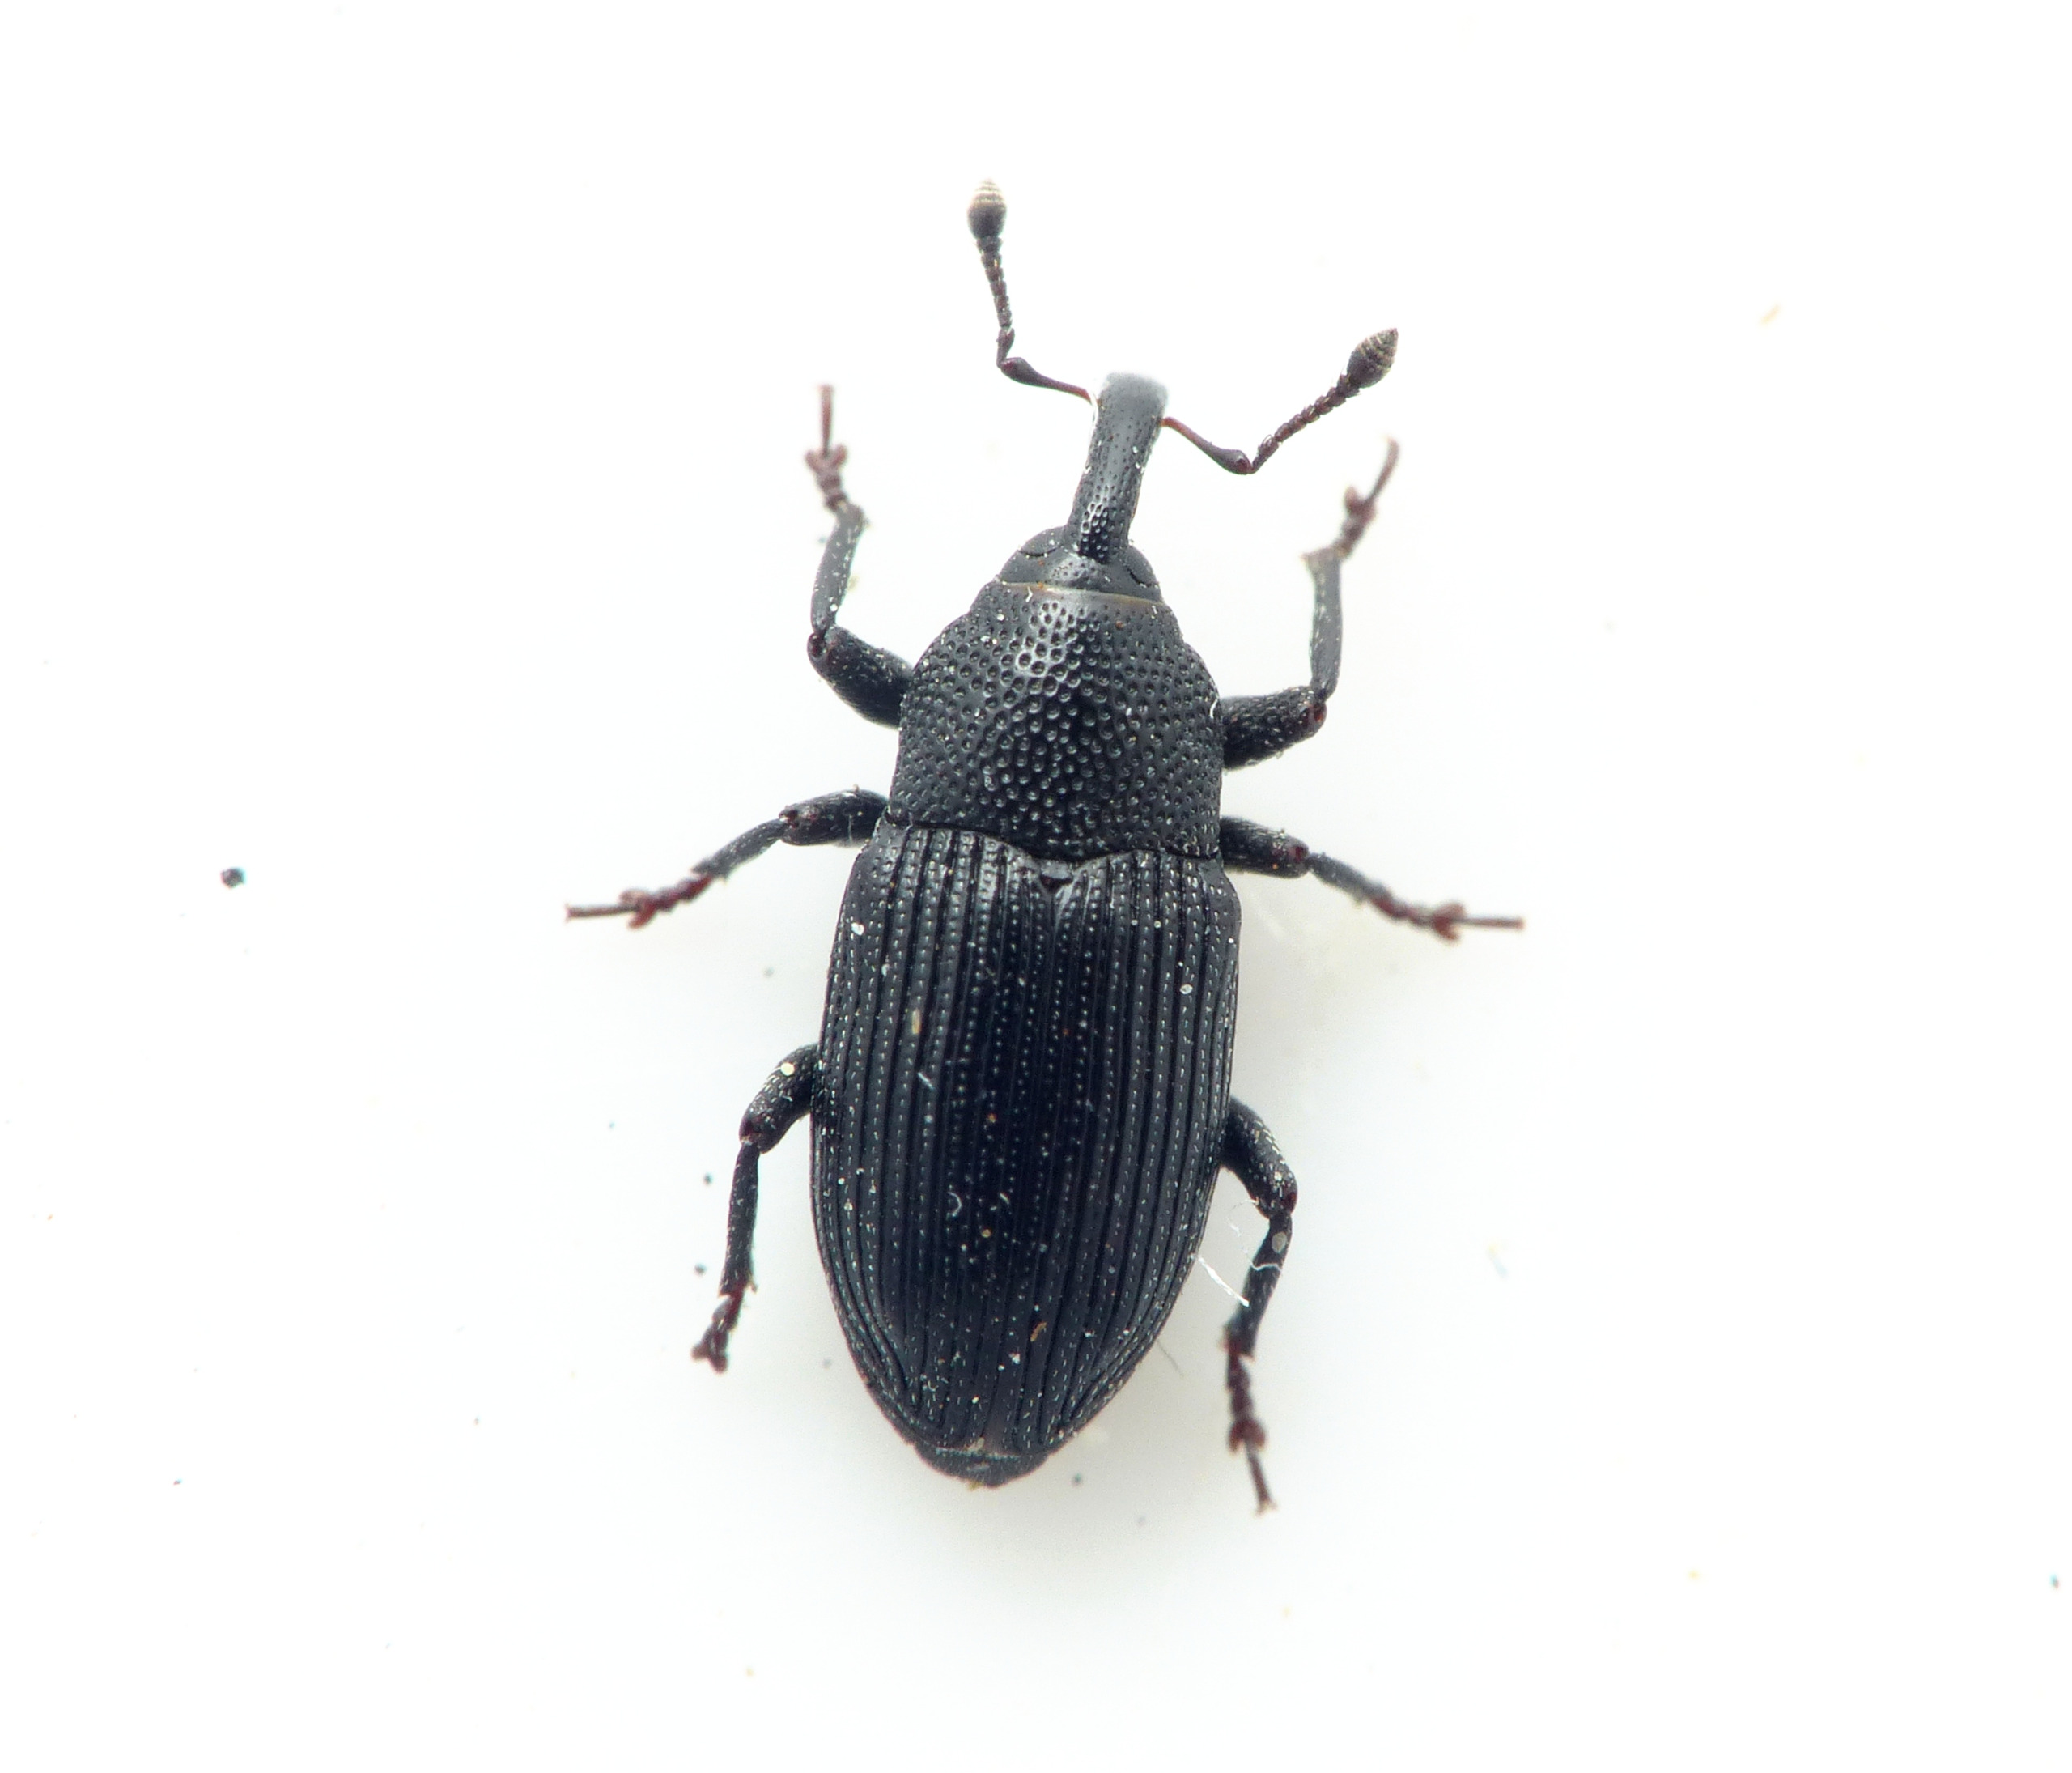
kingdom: Animalia
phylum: Arthropoda
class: Insecta
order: Coleoptera
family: Curculionidae
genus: Baris
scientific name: Baris artemisiae
